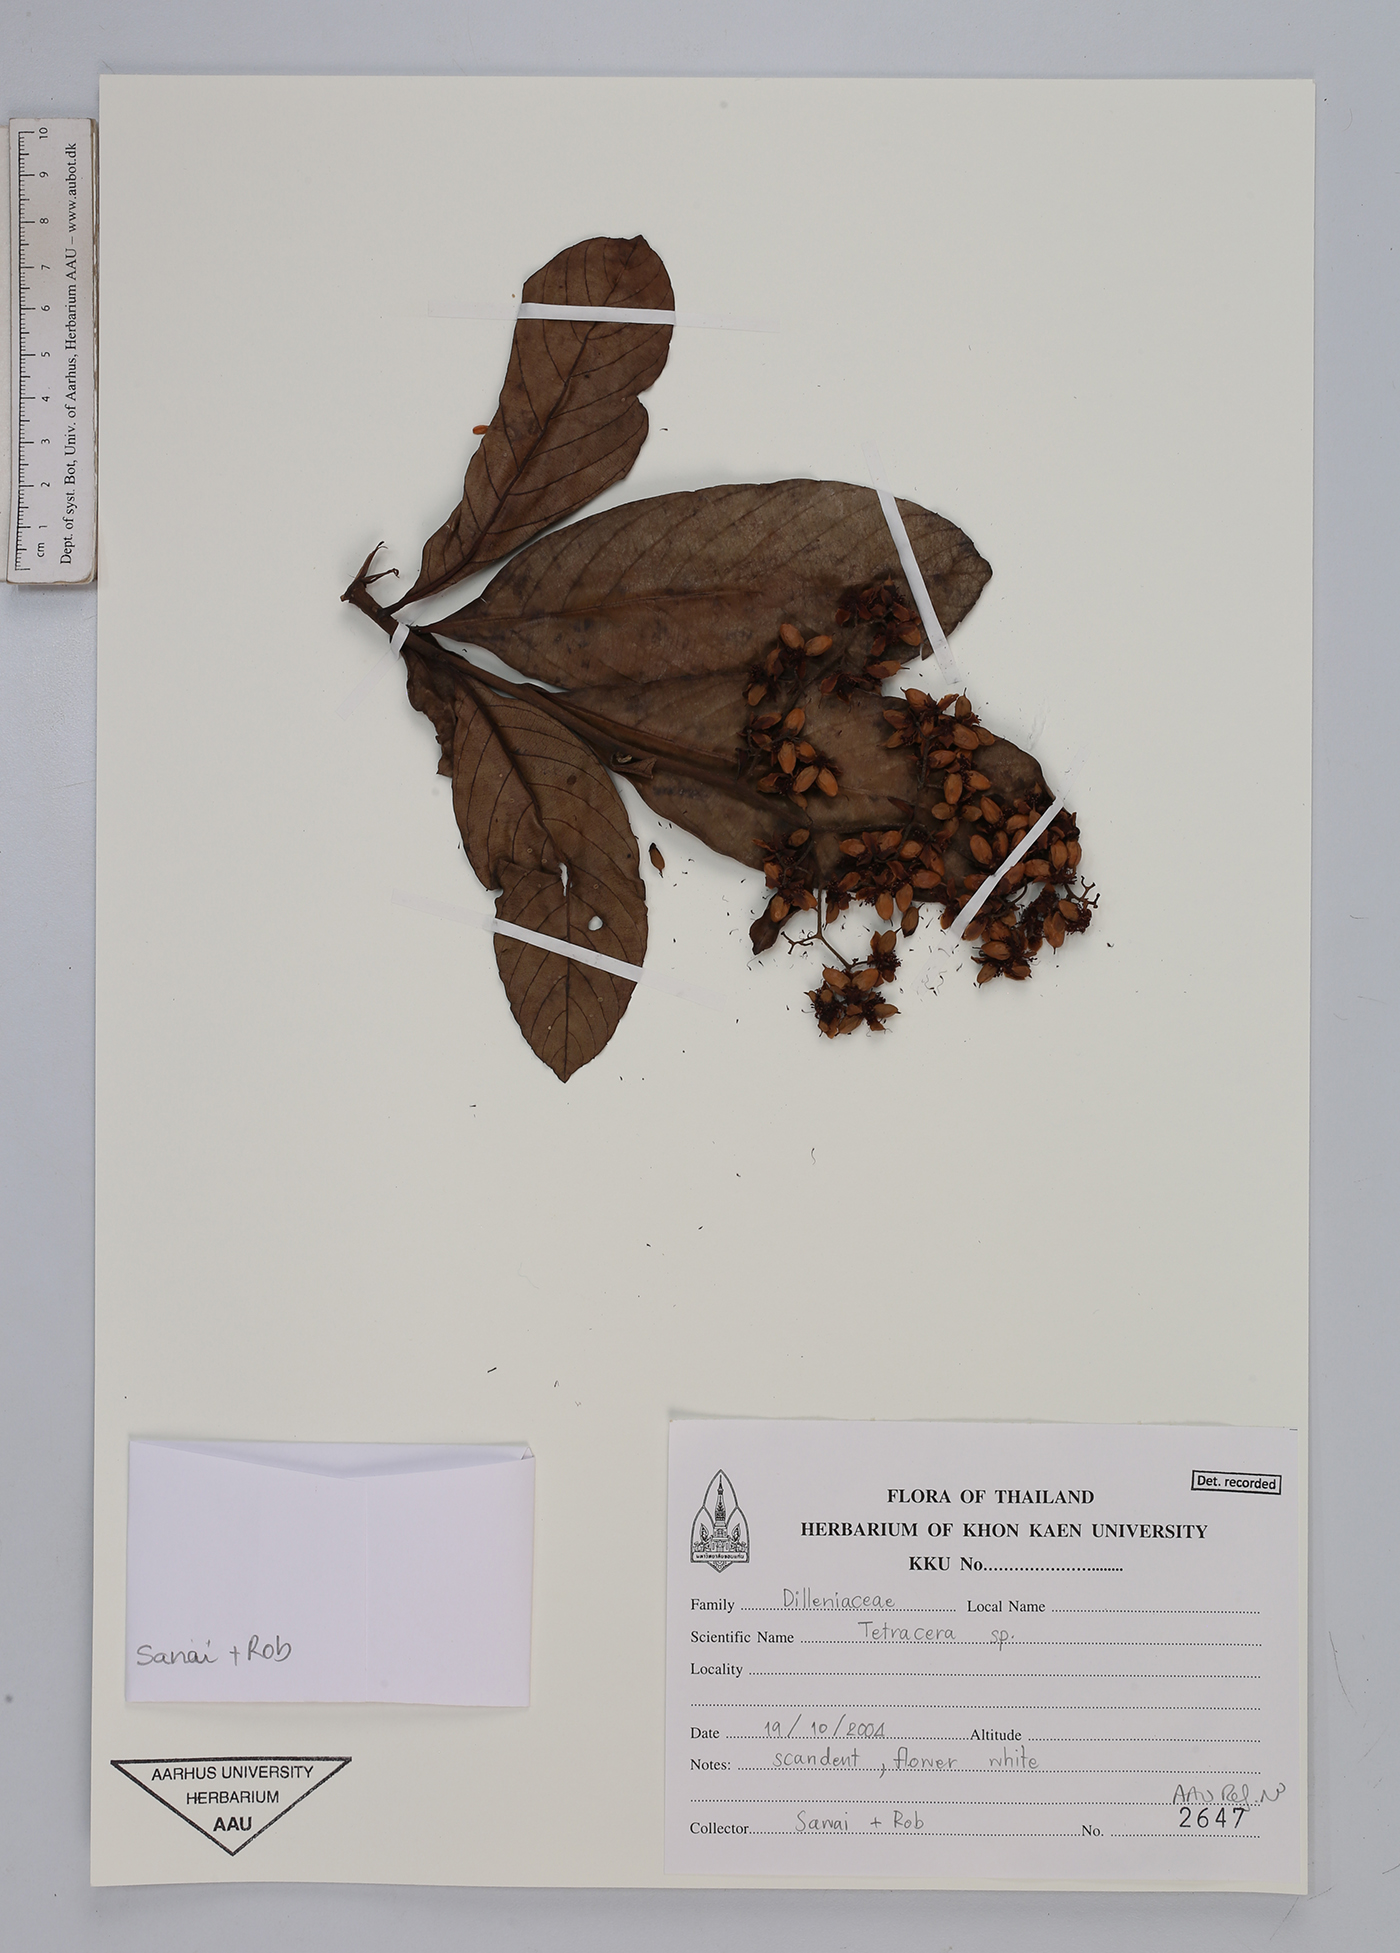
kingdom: Plantae
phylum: Tracheophyta
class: Magnoliopsida
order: Dilleniales
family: Dilleniaceae
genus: Tetracera
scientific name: Tetracera
